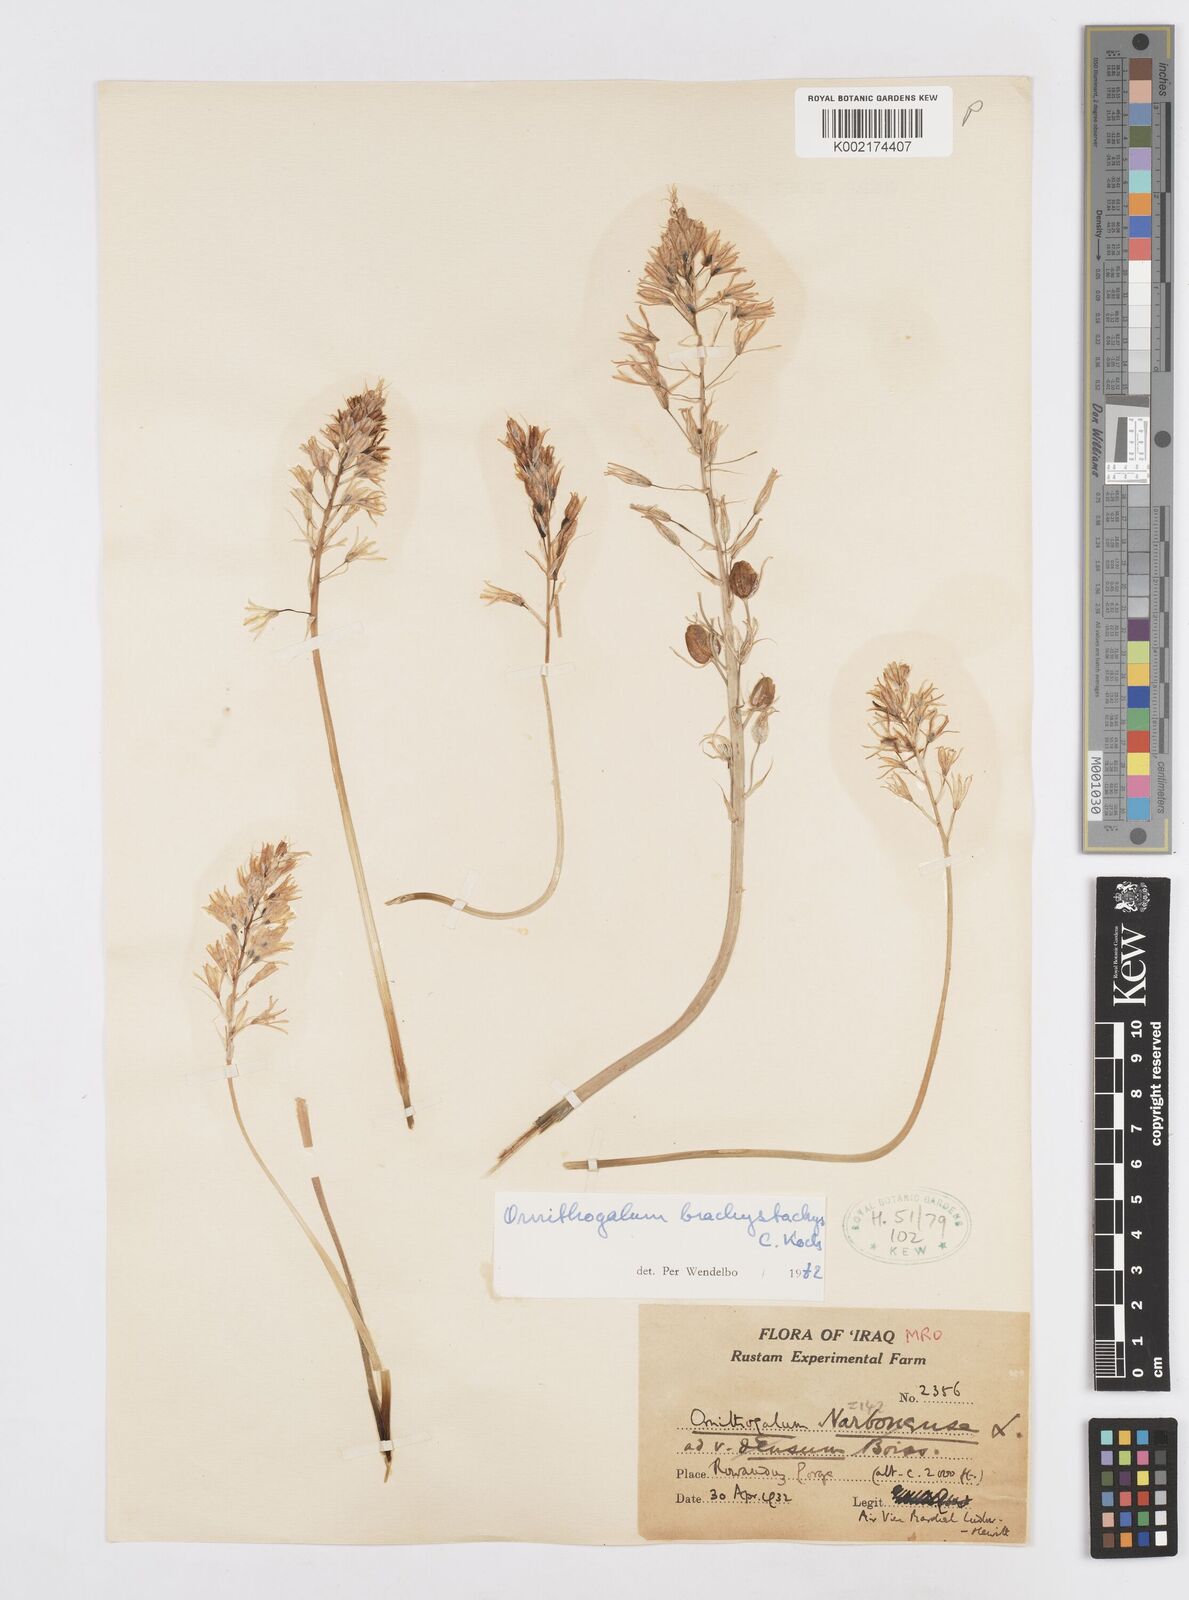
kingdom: Plantae
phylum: Tracheophyta
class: Liliopsida
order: Asparagales
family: Asparagaceae
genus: Ornithogalum
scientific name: Ornithogalum narbonense
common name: Bath-asparagus
